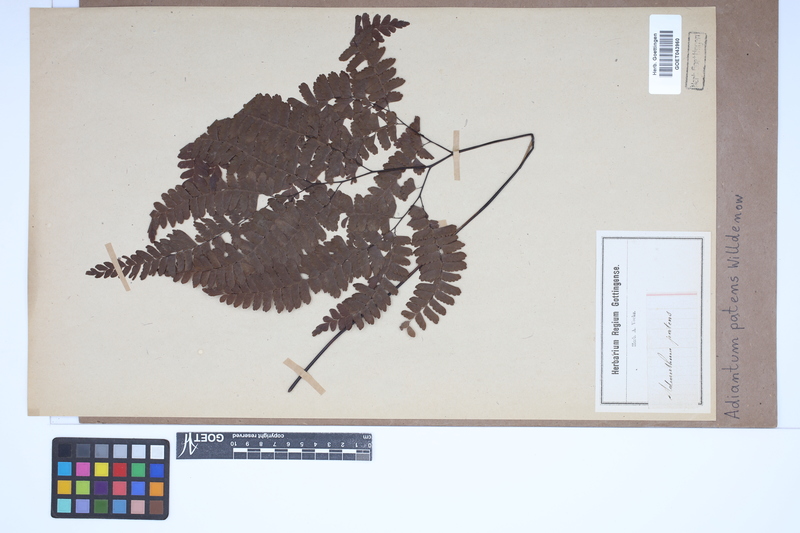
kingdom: Plantae
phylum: Tracheophyta
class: Polypodiopsida
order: Polypodiales
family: Pteridaceae
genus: Adiantum
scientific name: Adiantum patens
